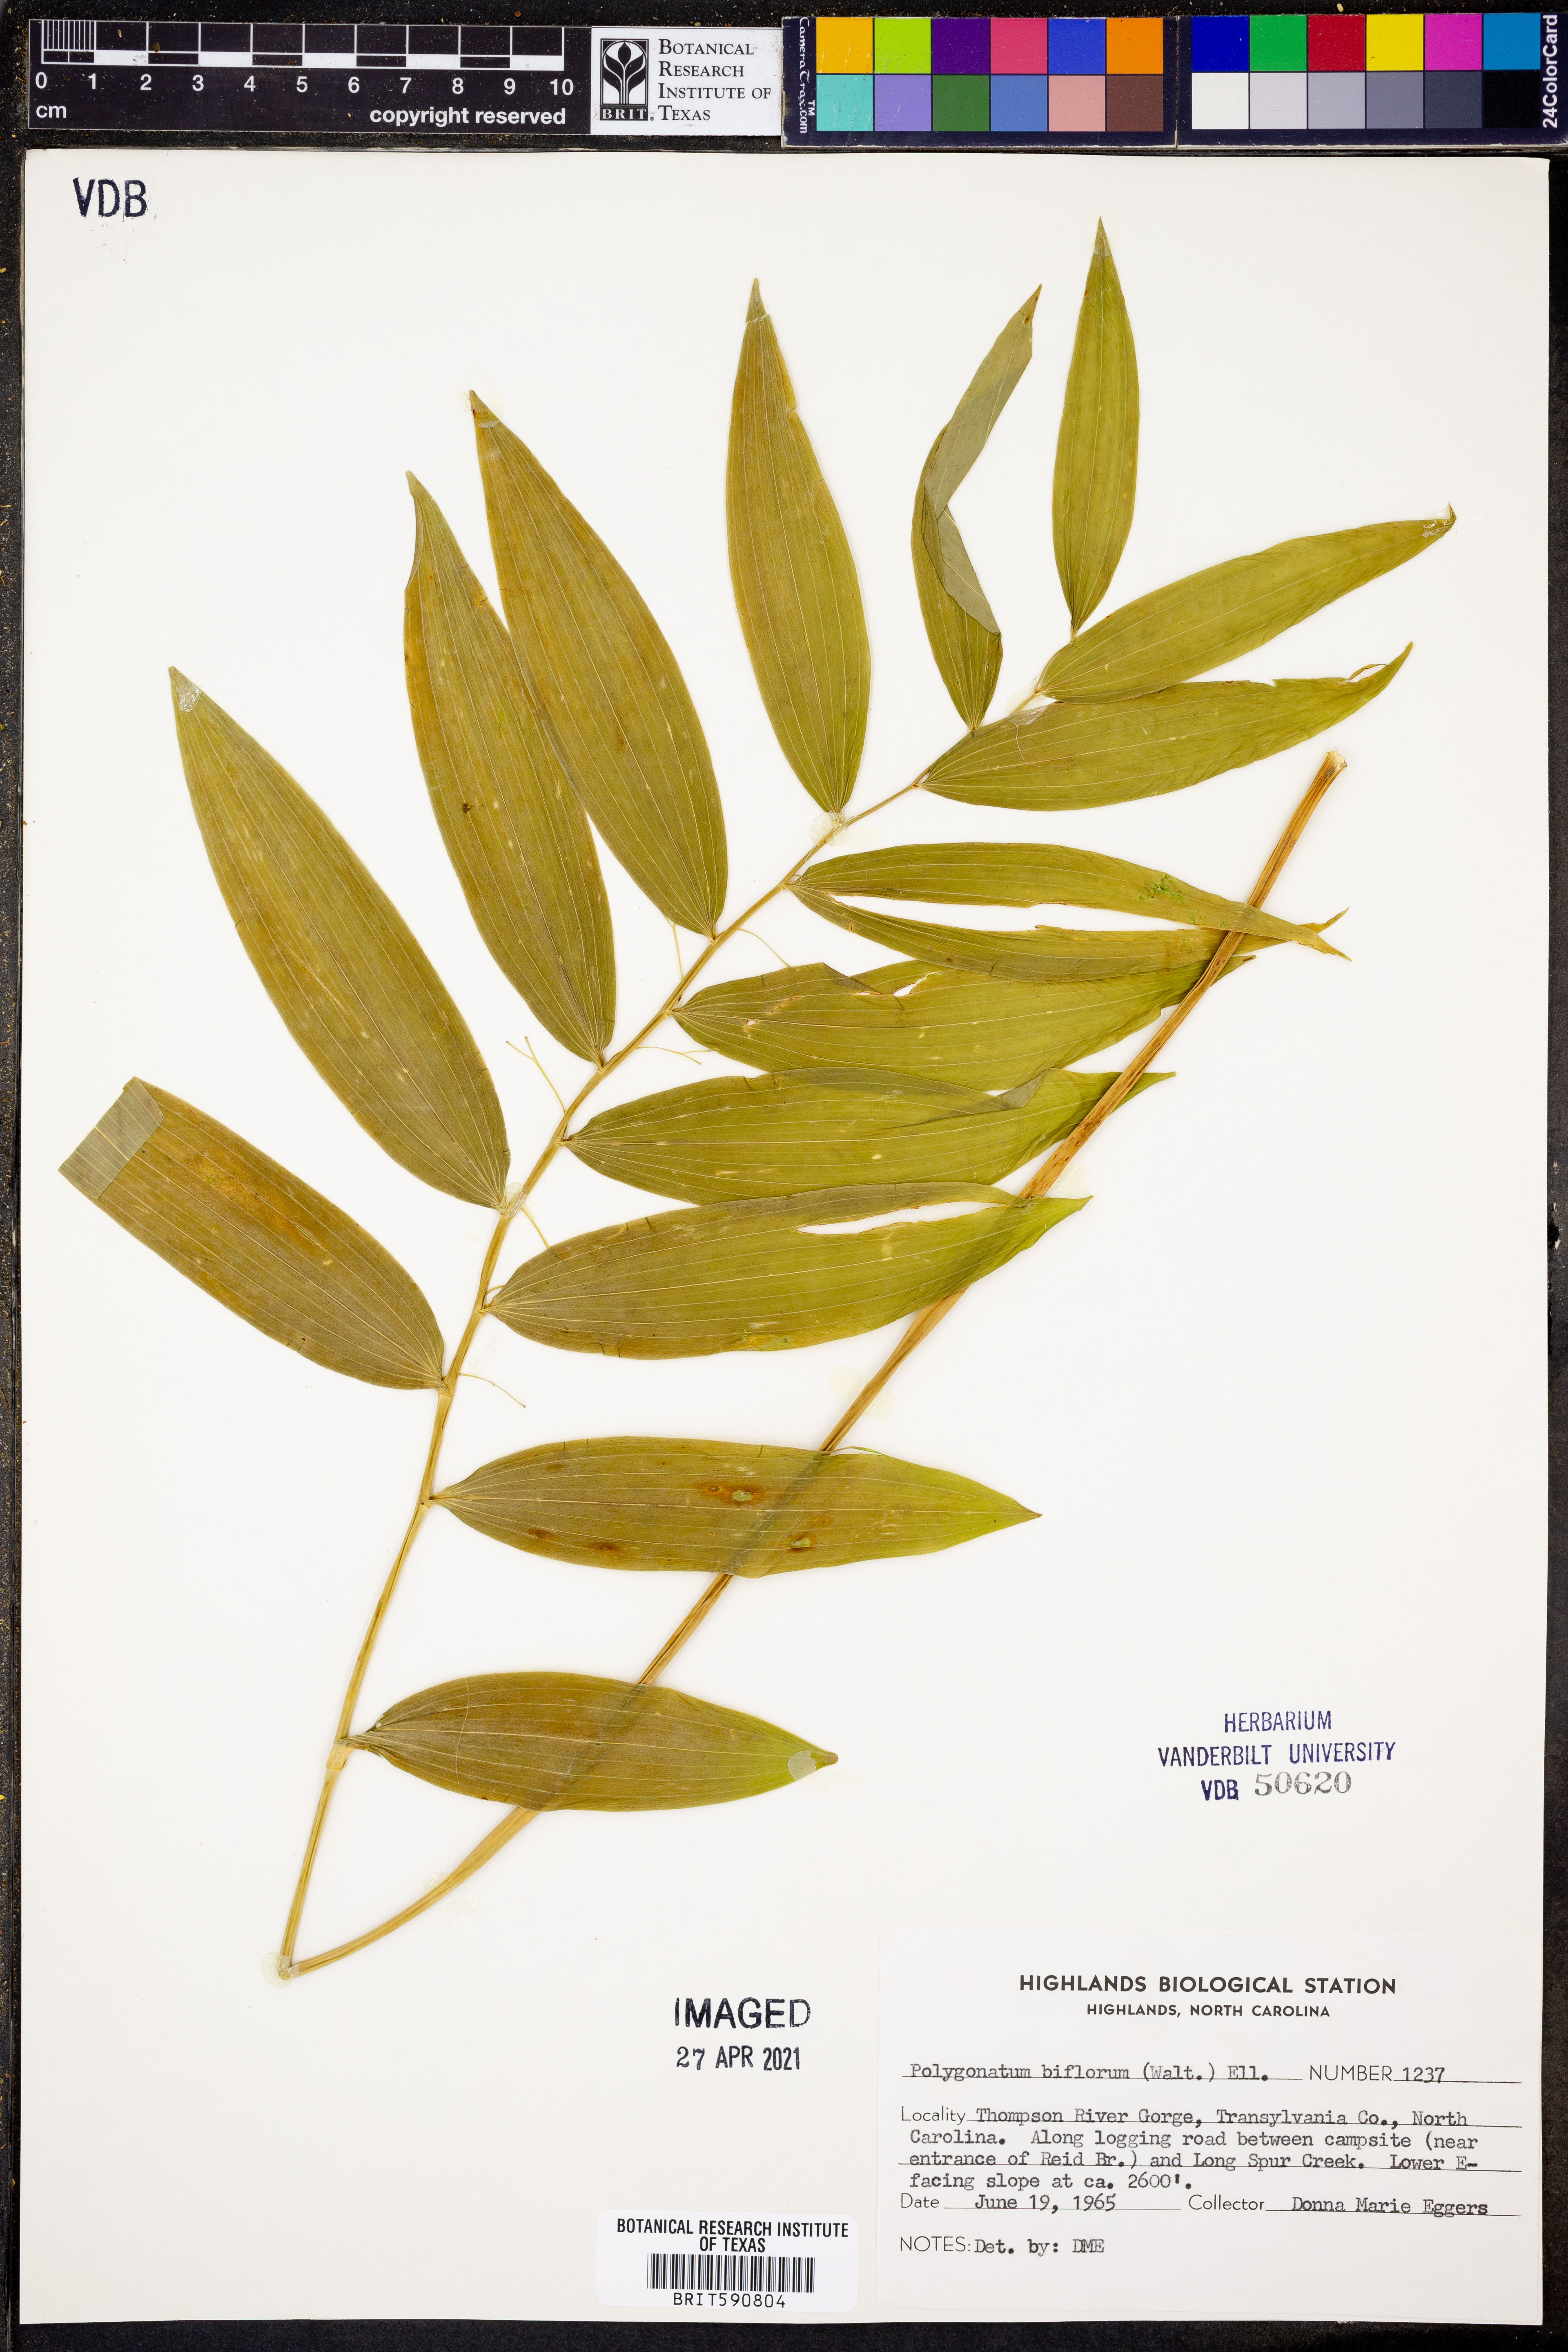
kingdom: Plantae
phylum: Tracheophyta
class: Liliopsida
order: Asparagales
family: Asparagaceae
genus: Polygonatum
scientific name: Polygonatum biflorum
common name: American solomon's-seal
